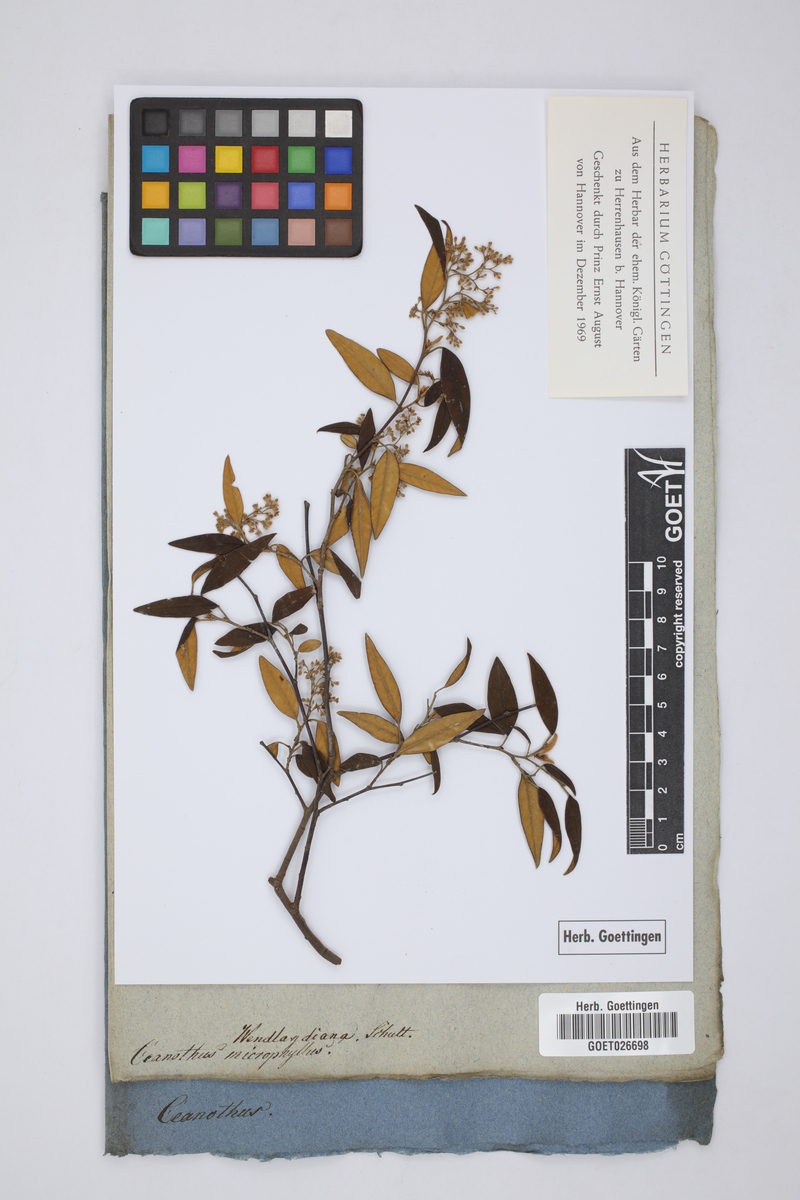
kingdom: Plantae
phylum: Tracheophyta
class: Magnoliopsida
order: Rosales
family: Rhamnaceae
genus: Ceanothus
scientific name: Ceanothus microphyllus
